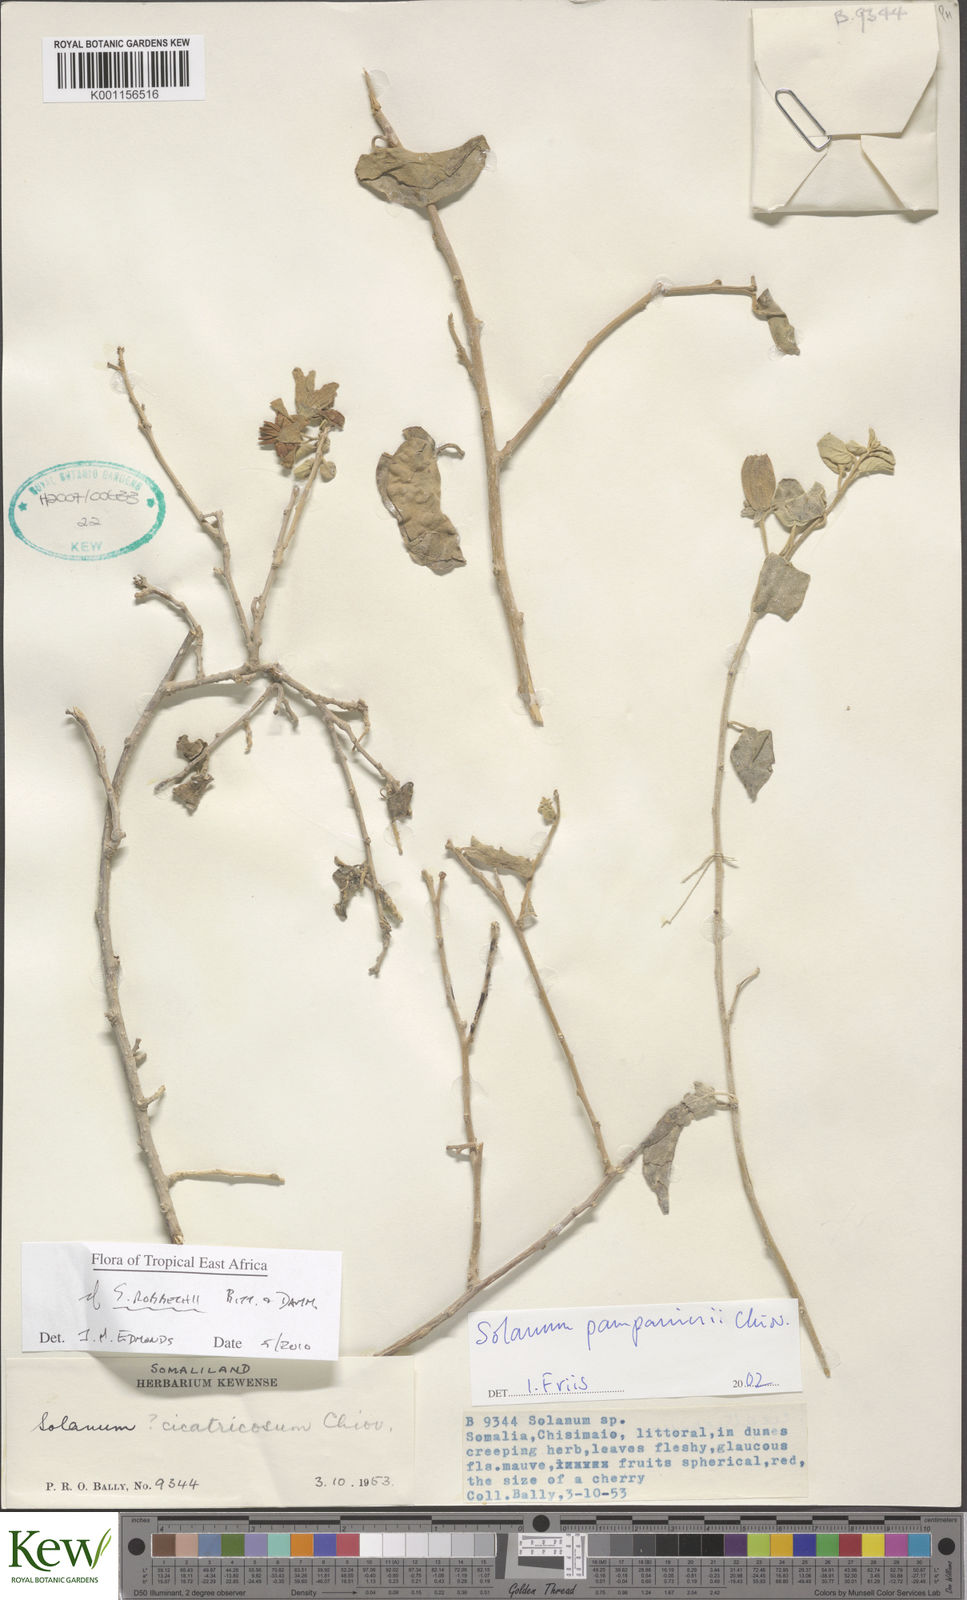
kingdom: Plantae
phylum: Tracheophyta
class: Magnoliopsida
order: Solanales
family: Solanaceae
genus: Solanum
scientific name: Solanum pampaninii
